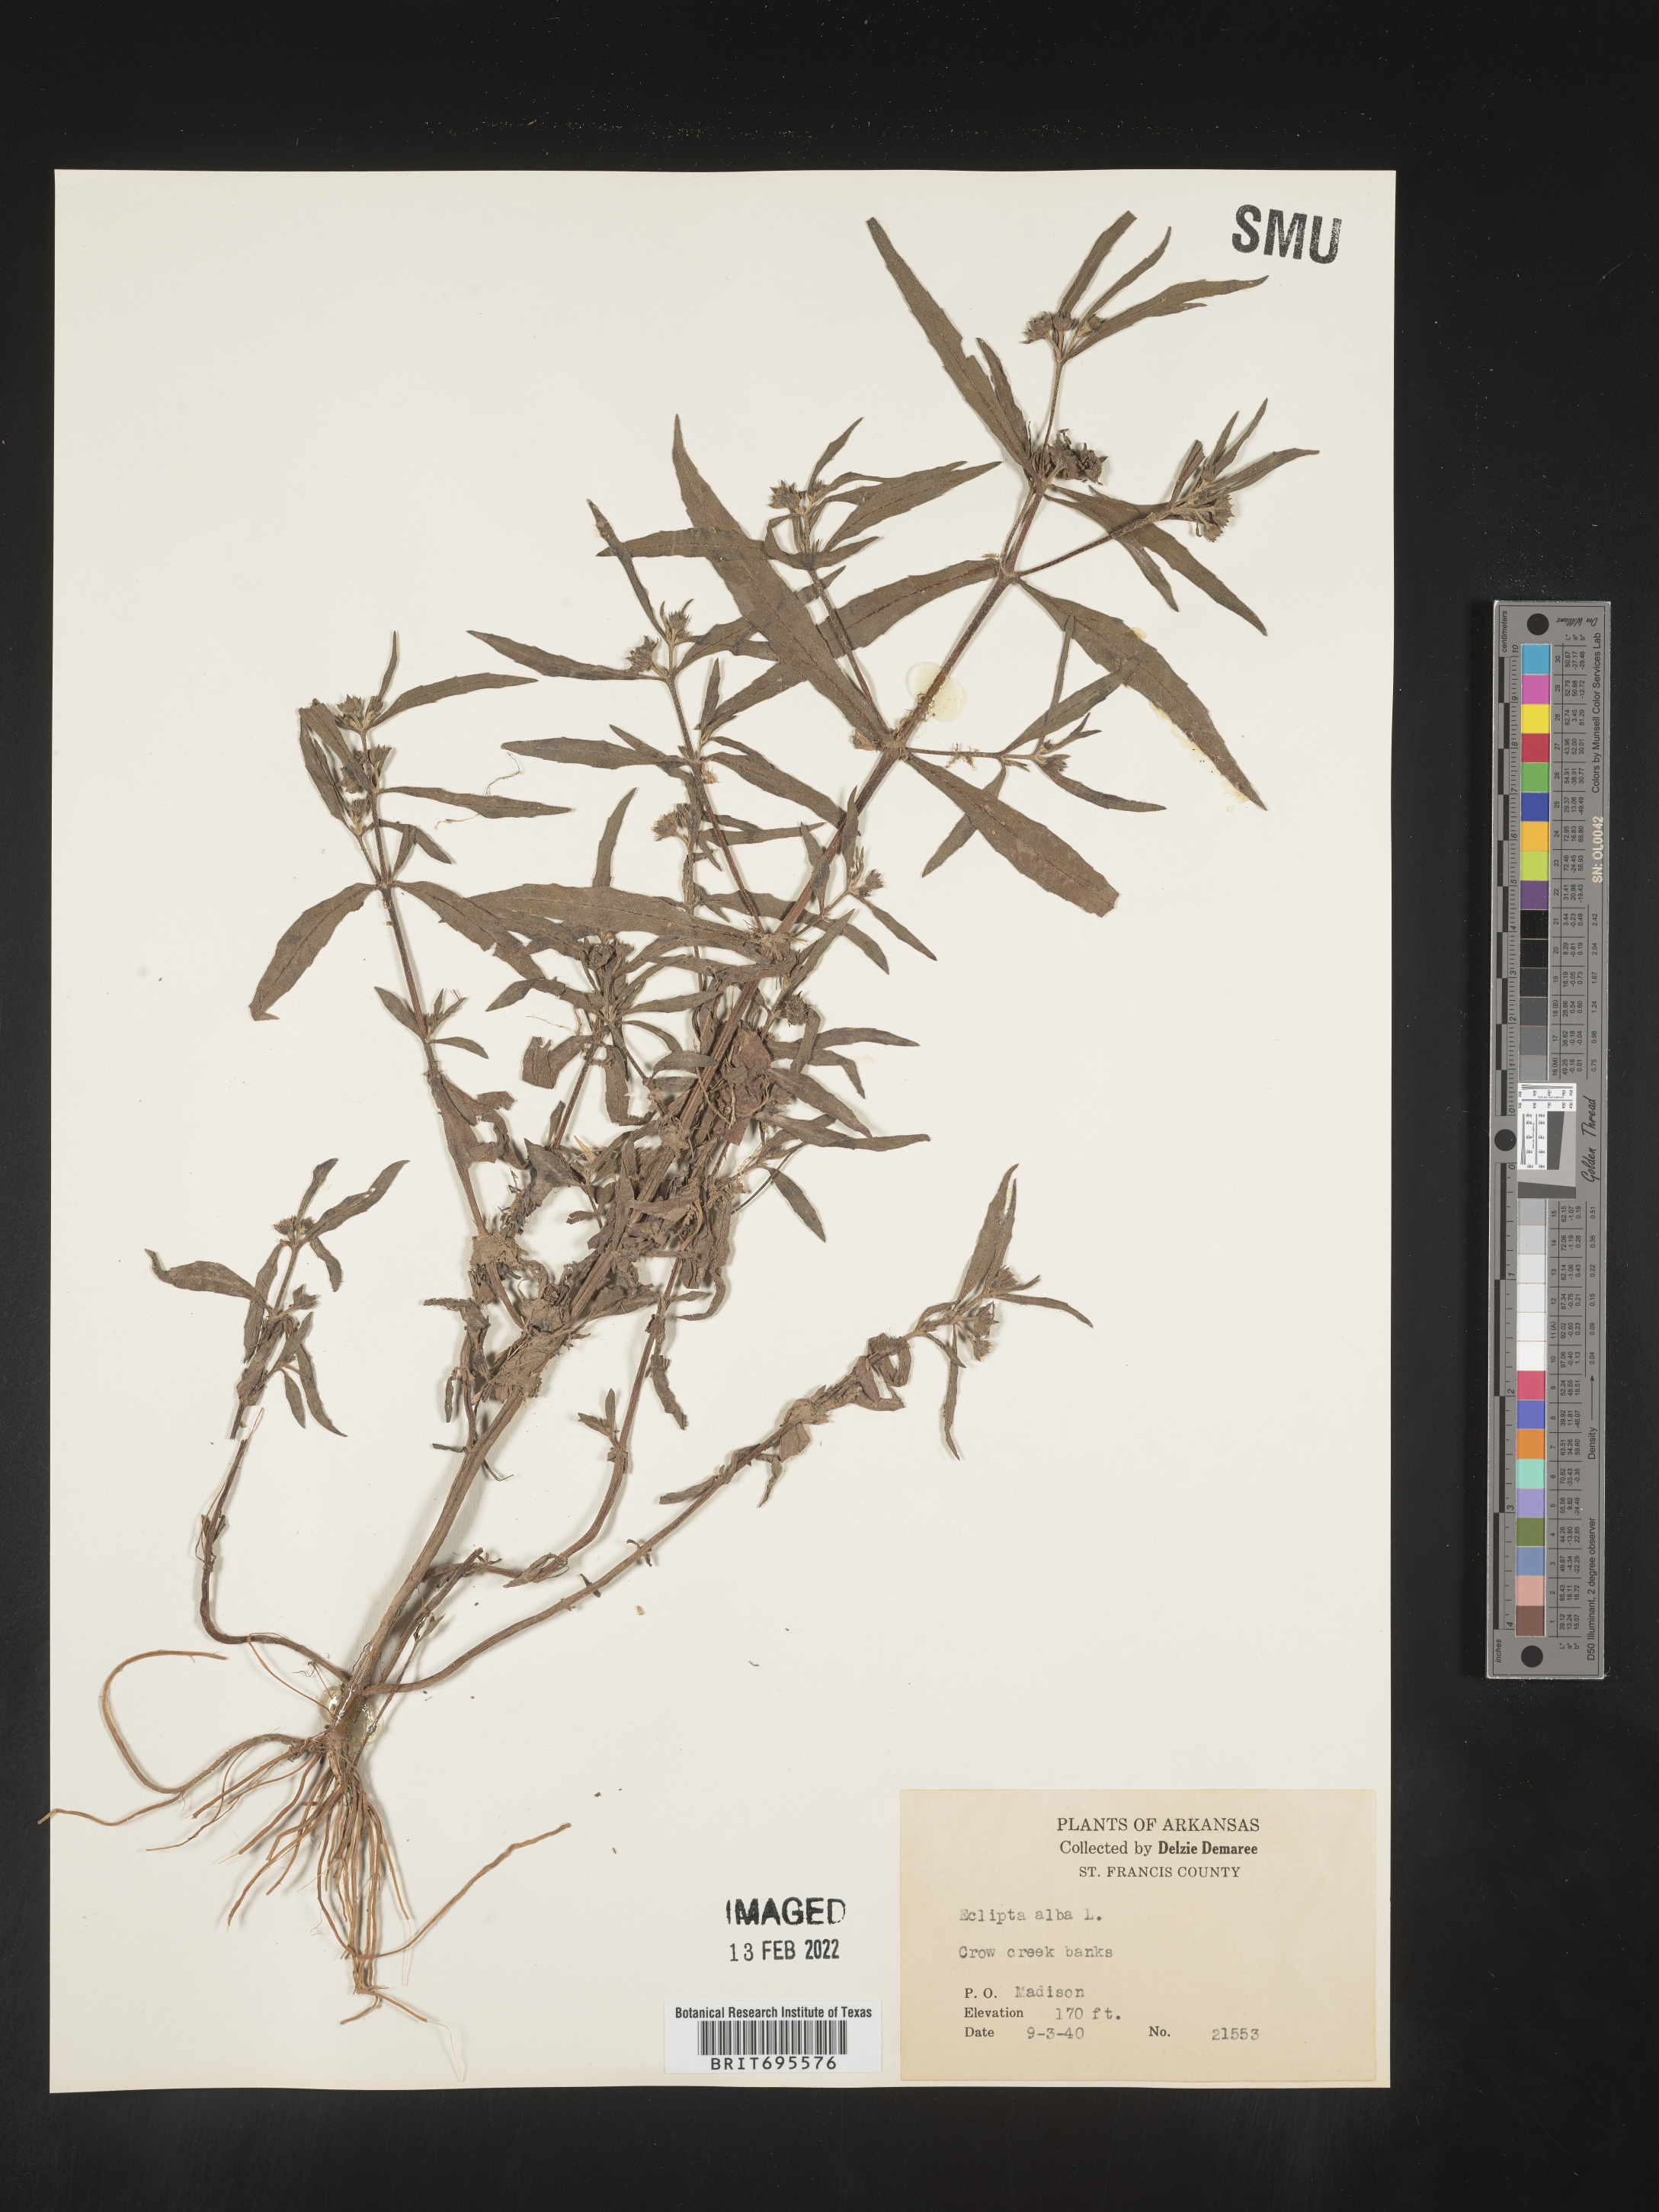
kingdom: Plantae
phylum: Tracheophyta
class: Magnoliopsida
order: Asterales
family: Asteraceae
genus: Eclipta
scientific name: Eclipta alba
